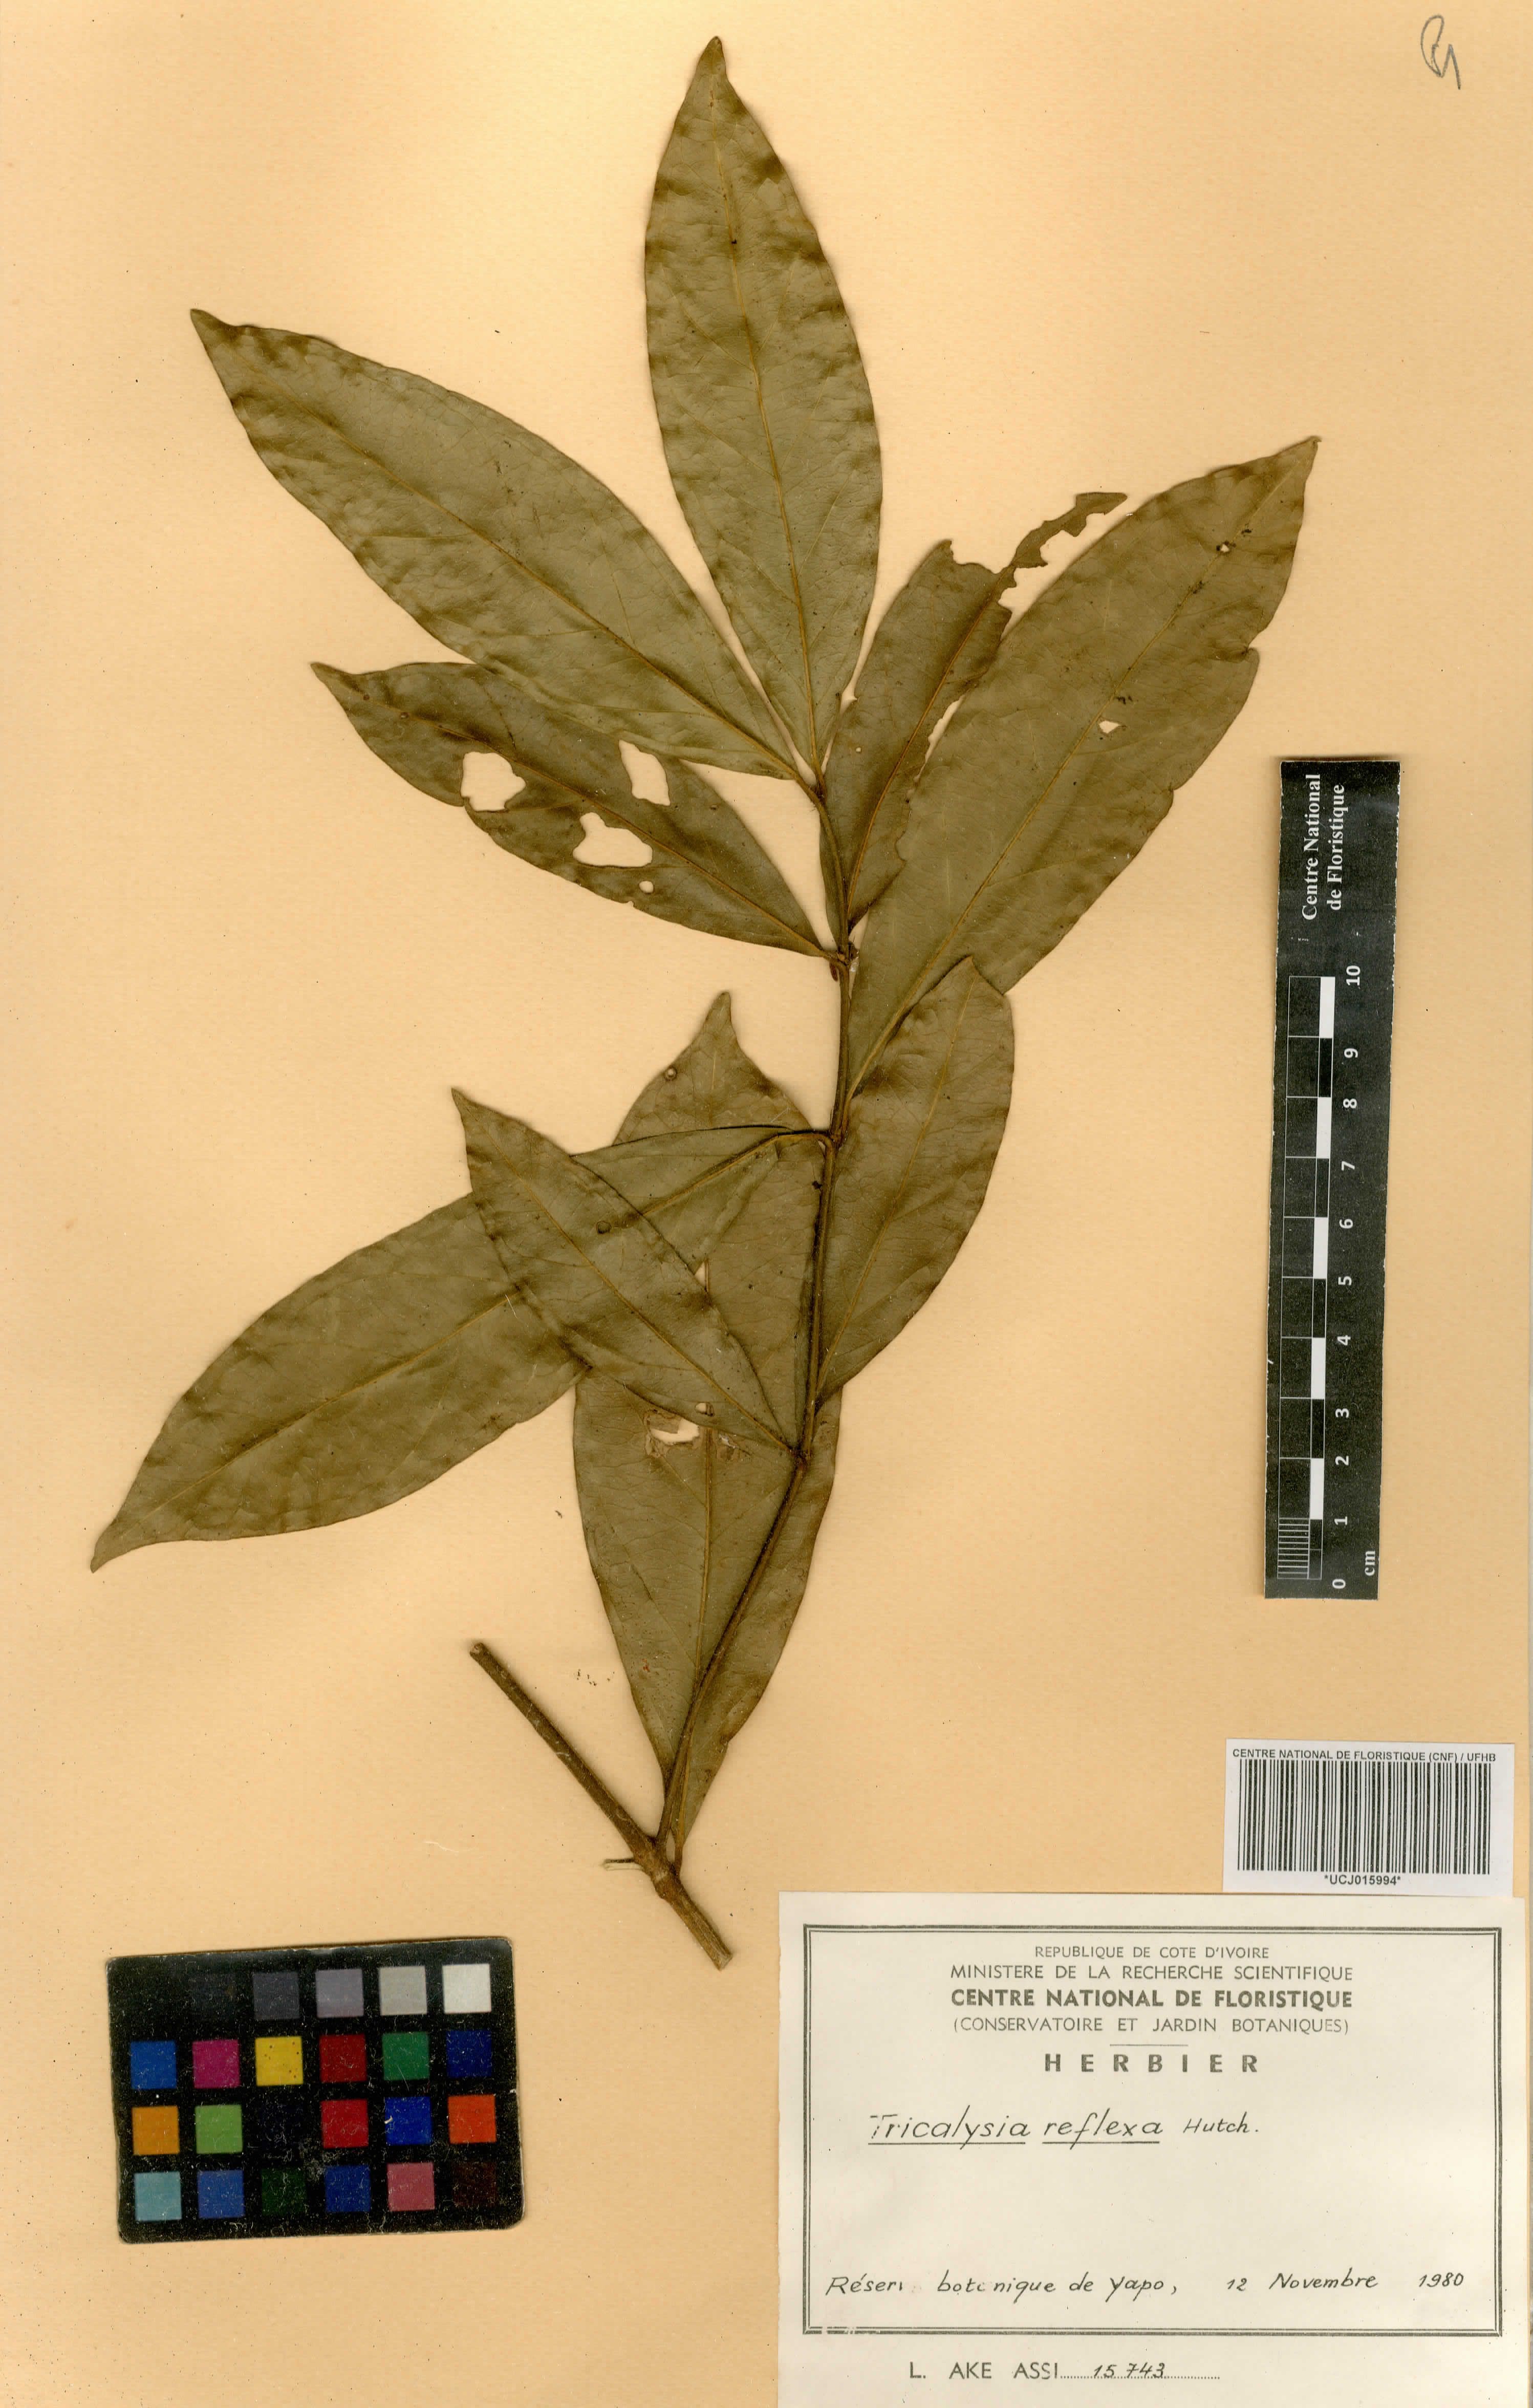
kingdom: Plantae
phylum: Tracheophyta
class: Magnoliopsida
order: Gentianales
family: Rubiaceae
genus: Empogona
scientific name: Empogona reflexa
